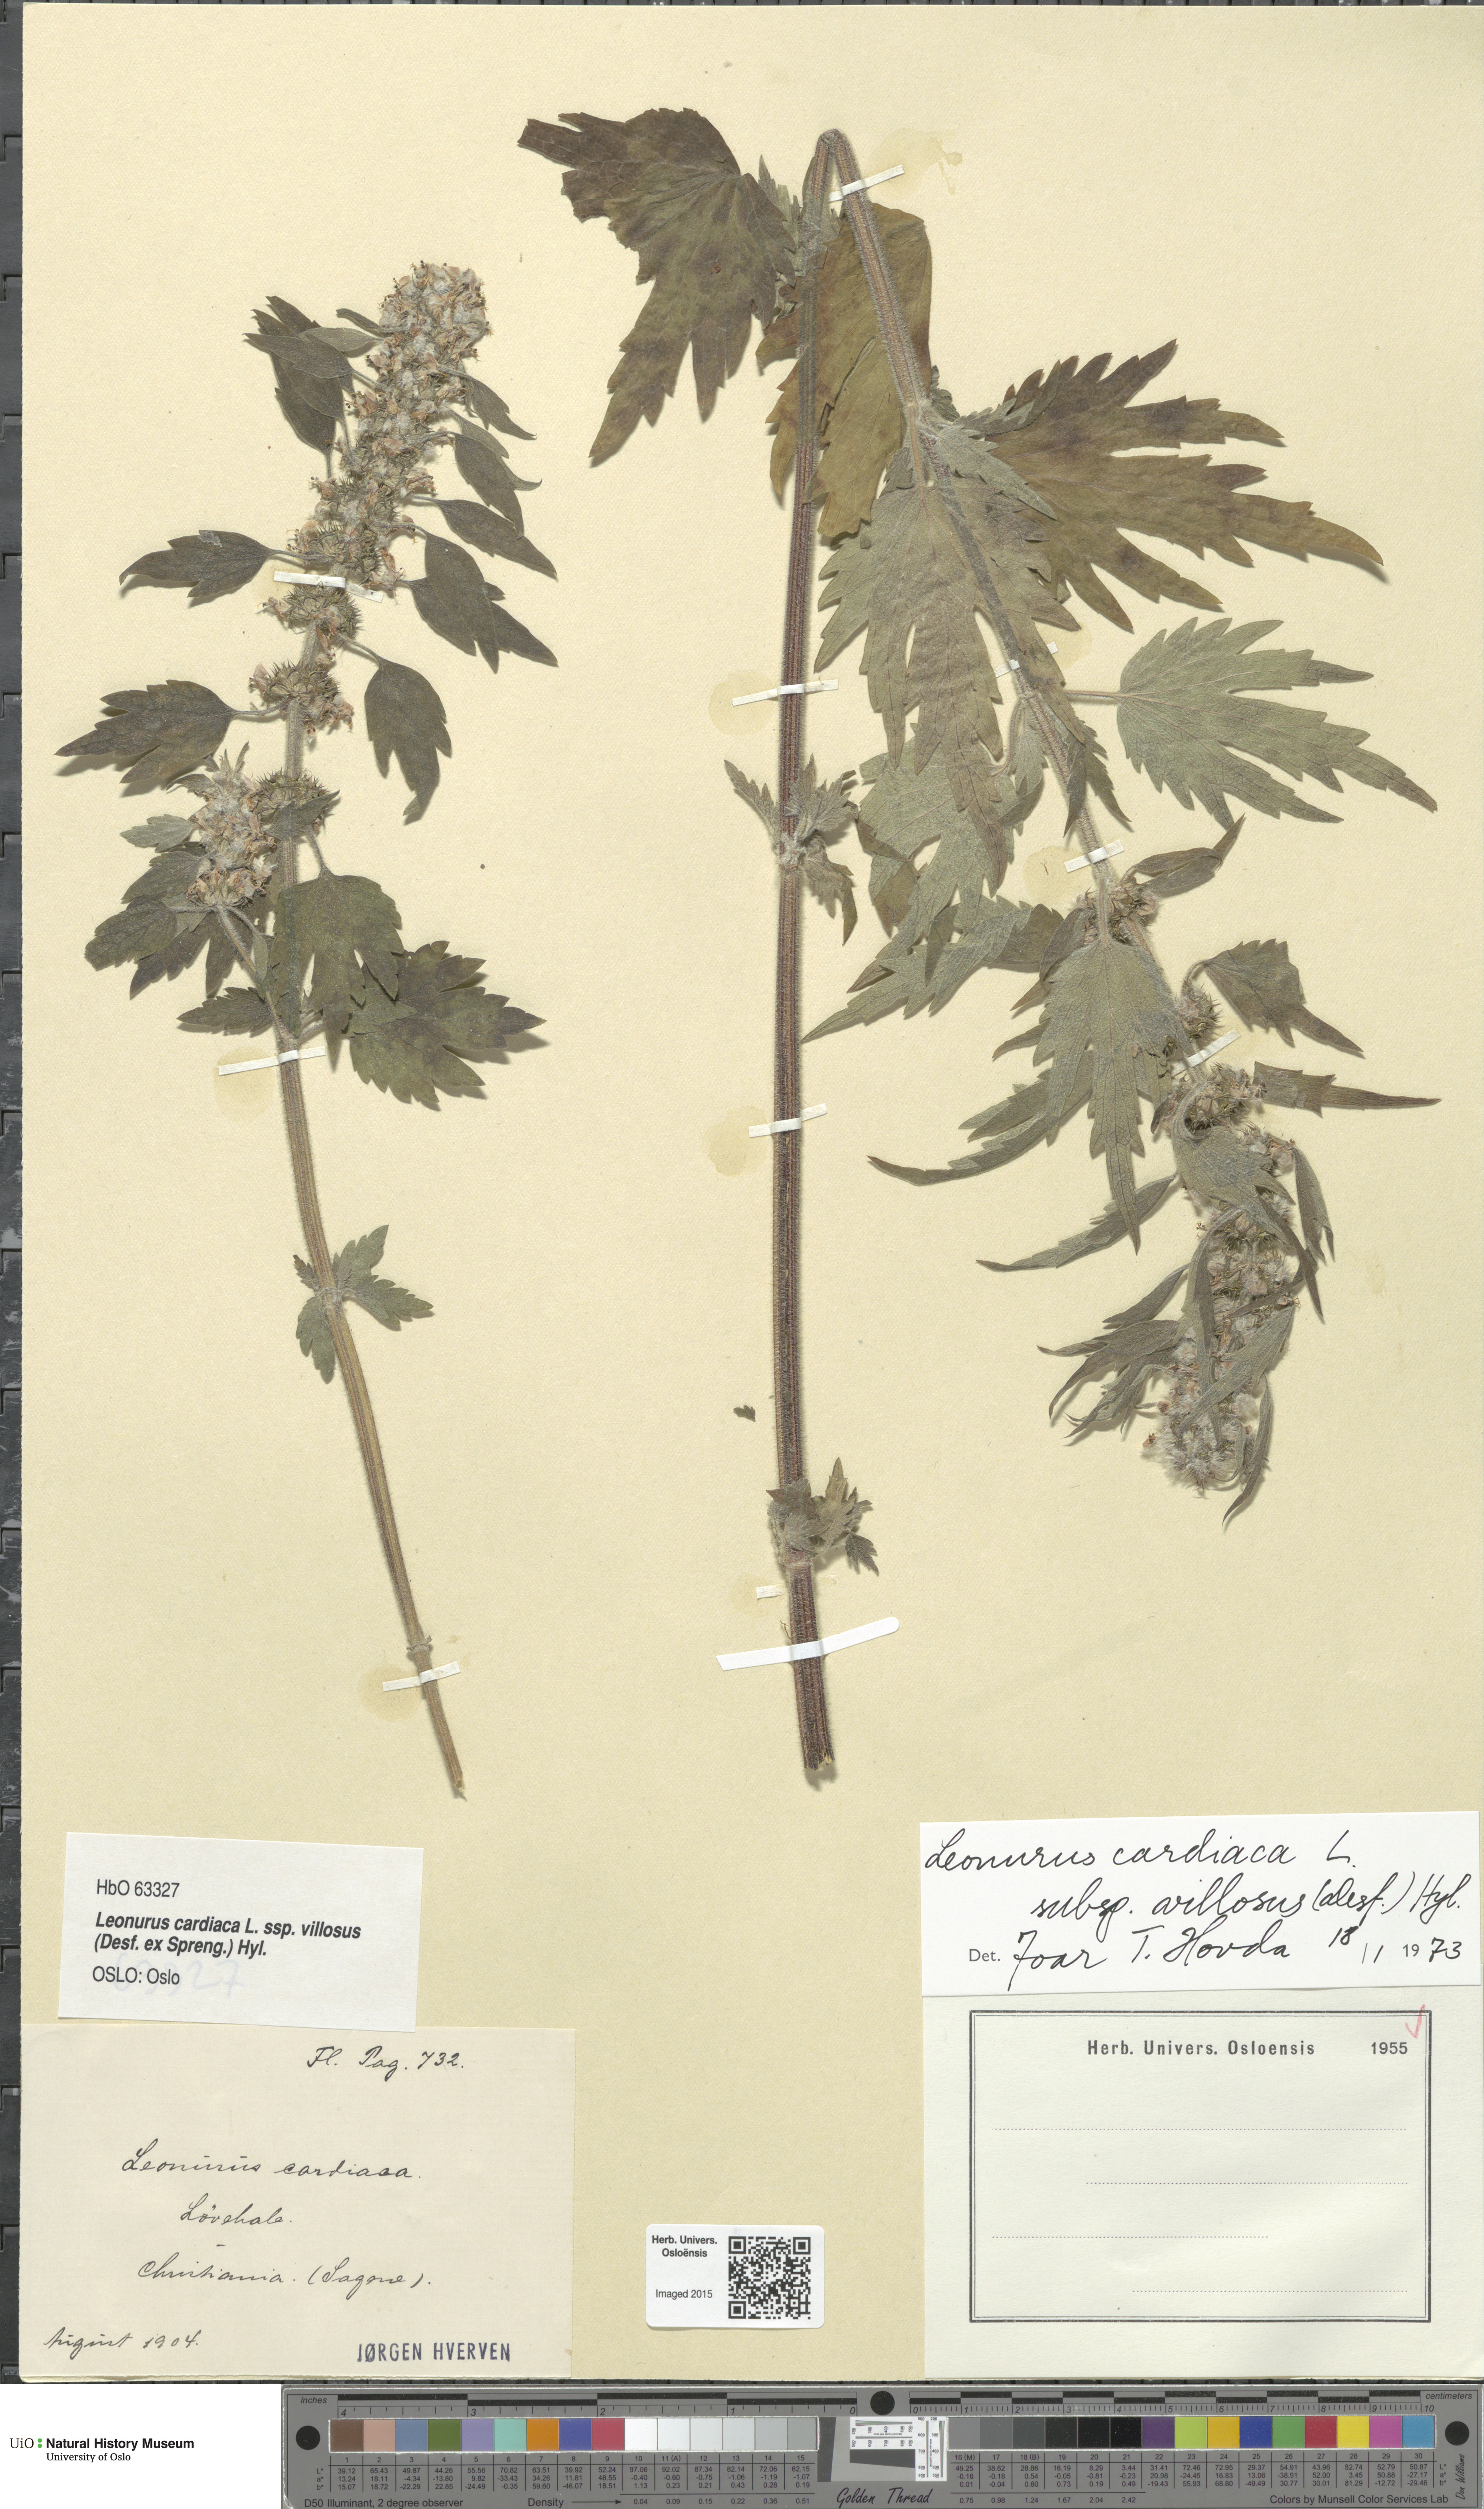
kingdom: Plantae
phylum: Tracheophyta
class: Magnoliopsida
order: Lamiales
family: Lamiaceae
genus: Leonurus
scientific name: Leonurus quinquelobatus
